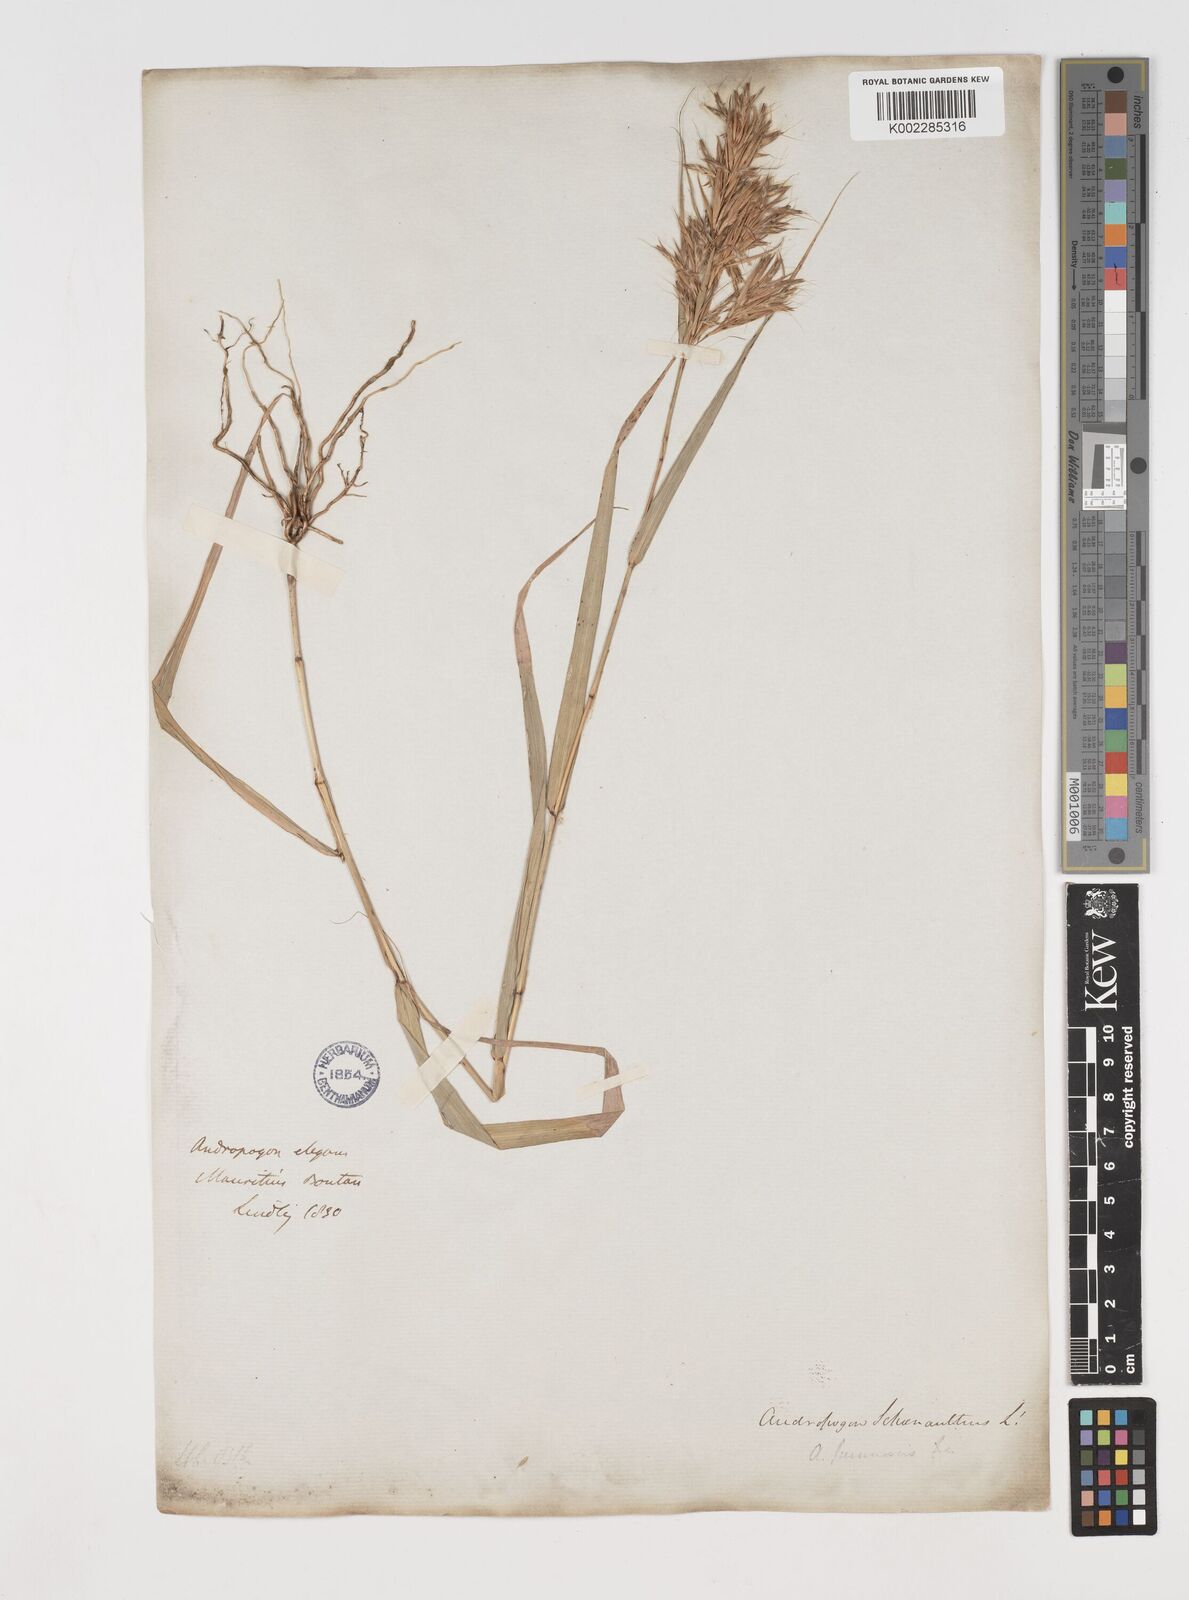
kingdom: Plantae
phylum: Tracheophyta
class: Liliopsida
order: Poales
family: Poaceae
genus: Cymbopogon
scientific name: Cymbopogon pruinosus
